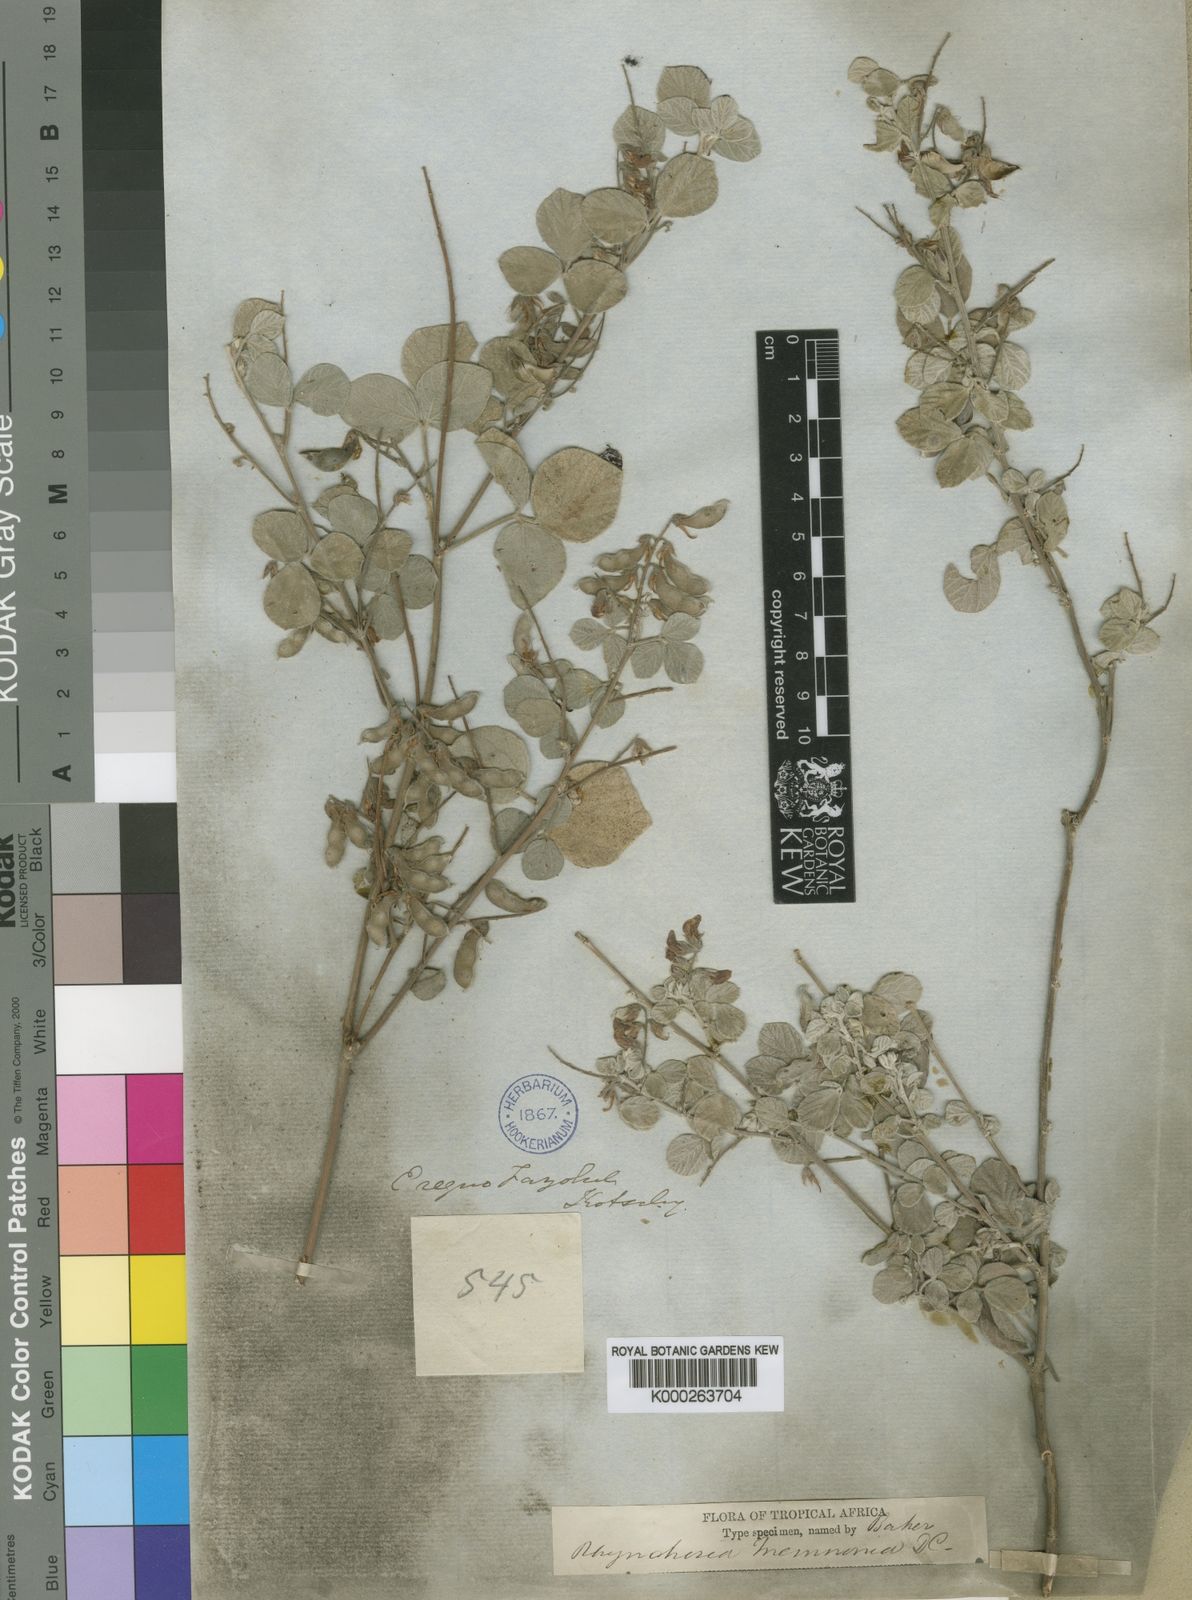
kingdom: Plantae
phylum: Tracheophyta
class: Magnoliopsida
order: Fabales
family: Fabaceae
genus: Rhynchosia
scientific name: Rhynchosia minima
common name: Least snoutbean
